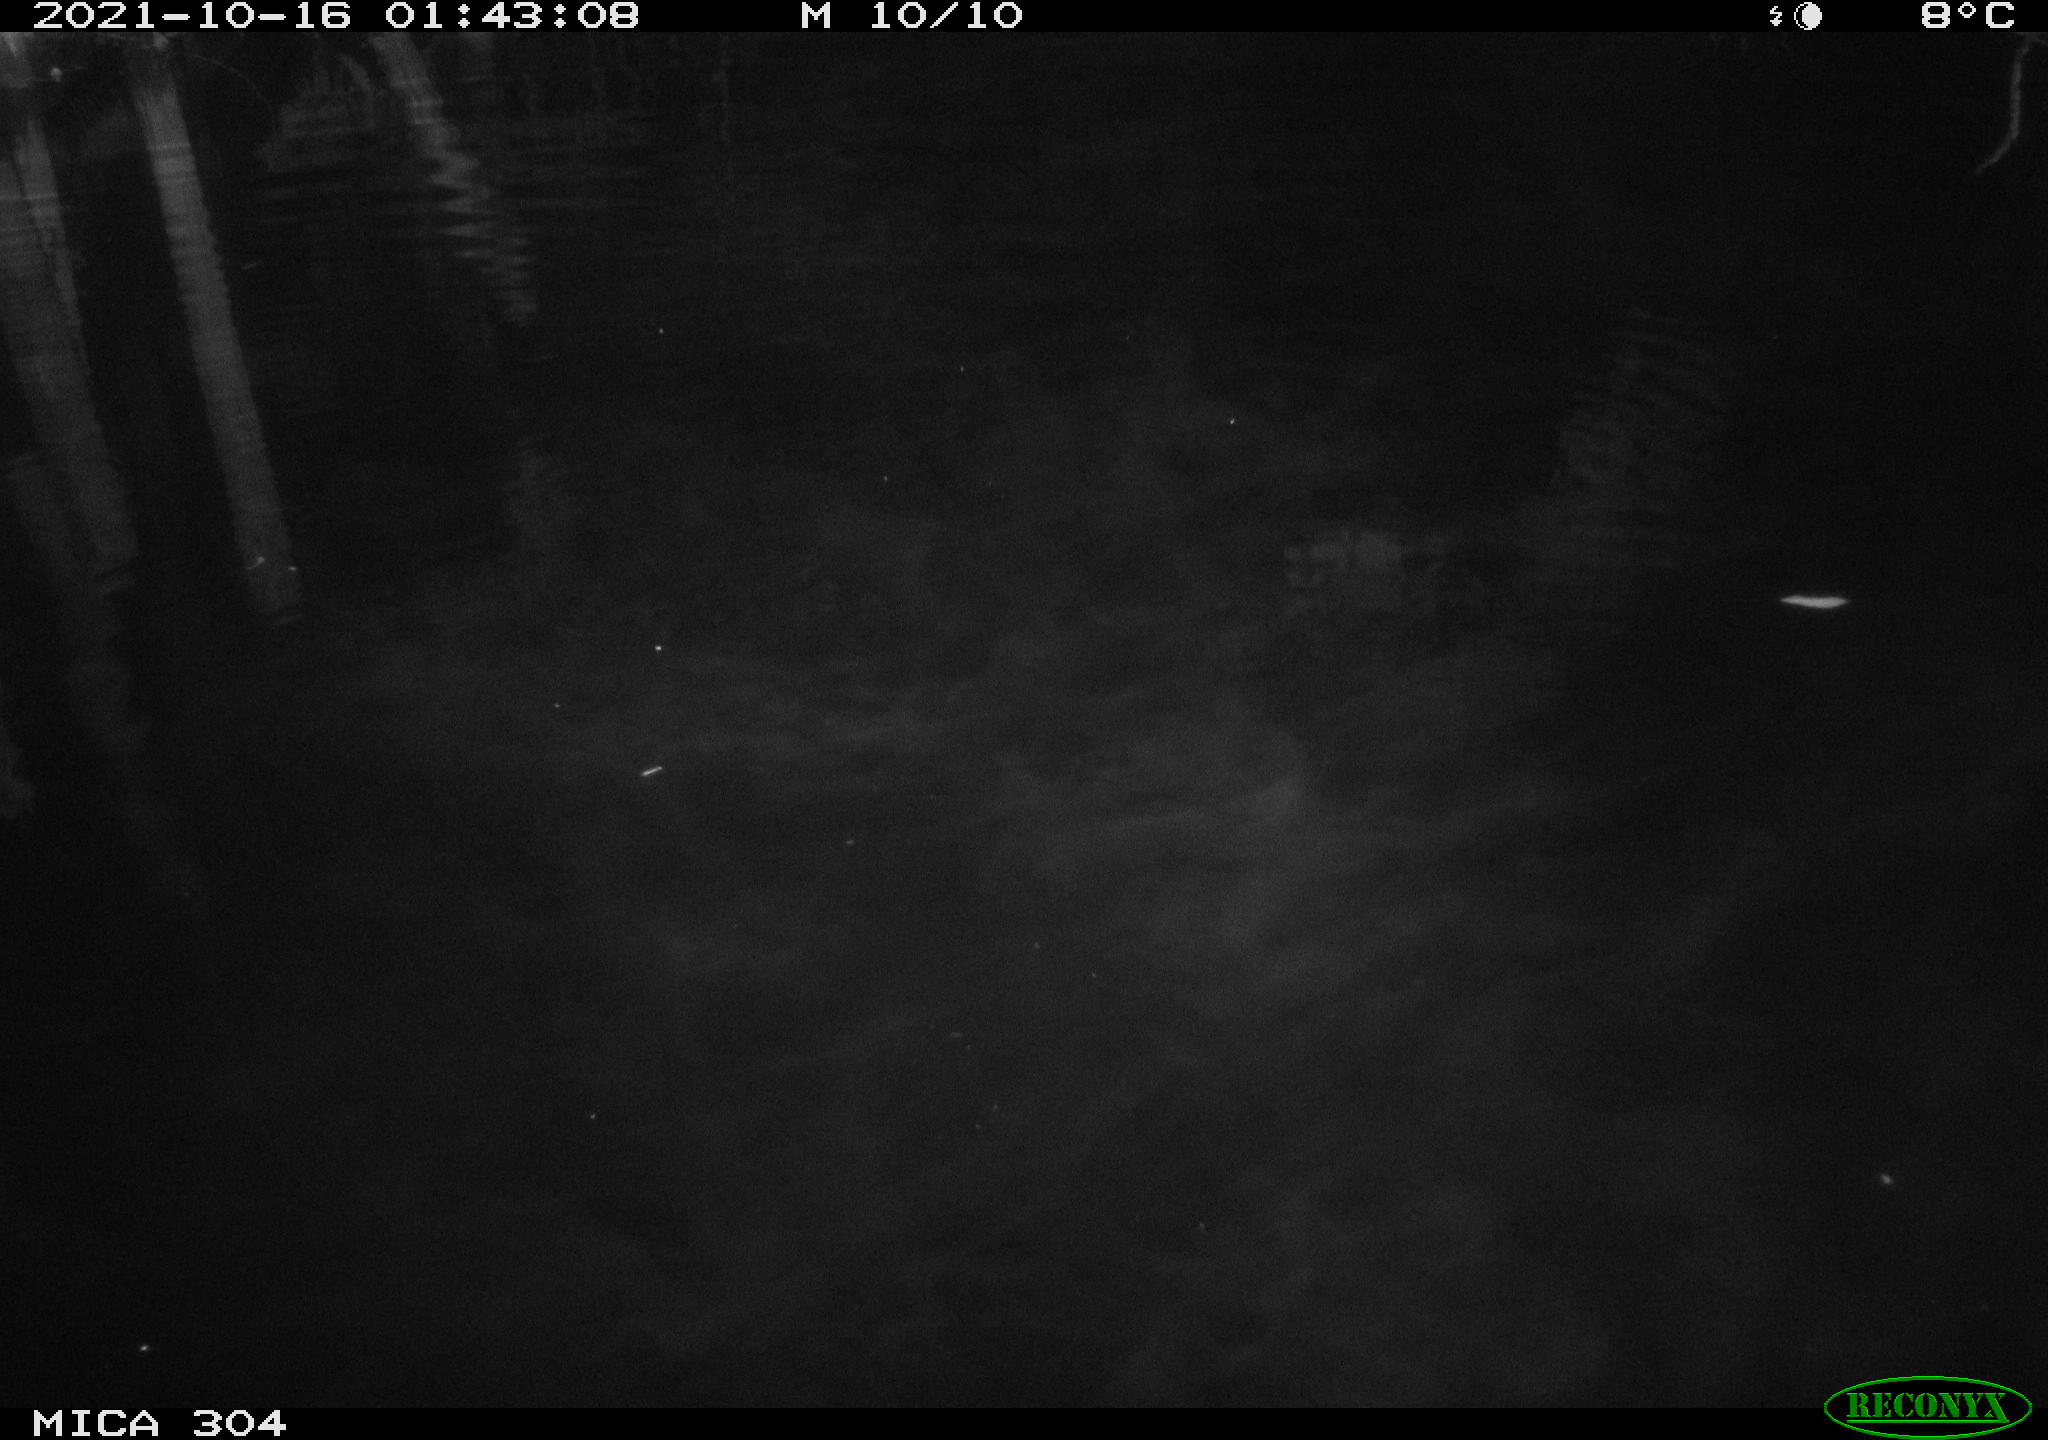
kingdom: Animalia
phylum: Chordata
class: Mammalia
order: Rodentia
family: Muridae
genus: Rattus
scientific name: Rattus norvegicus
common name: Brown rat
